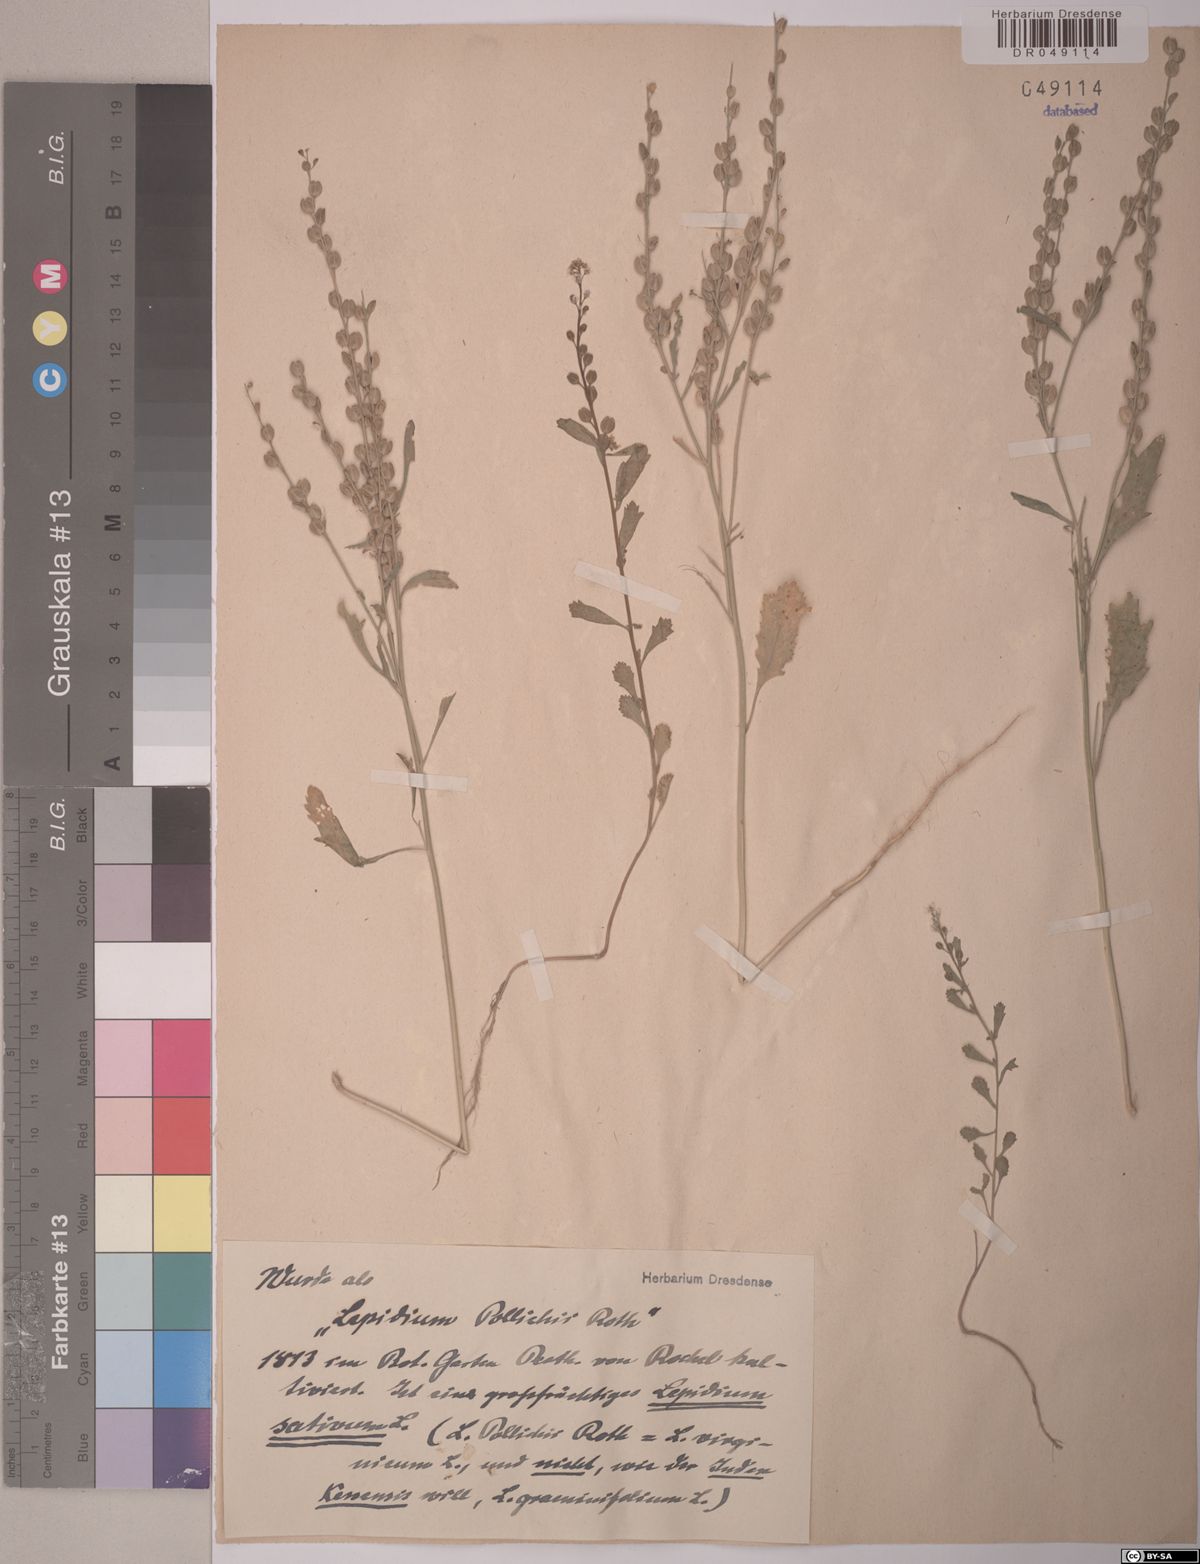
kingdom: Plantae
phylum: Tracheophyta
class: Magnoliopsida
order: Brassicales
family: Brassicaceae
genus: Lepidium
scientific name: Lepidium sativum
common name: Garden cress
